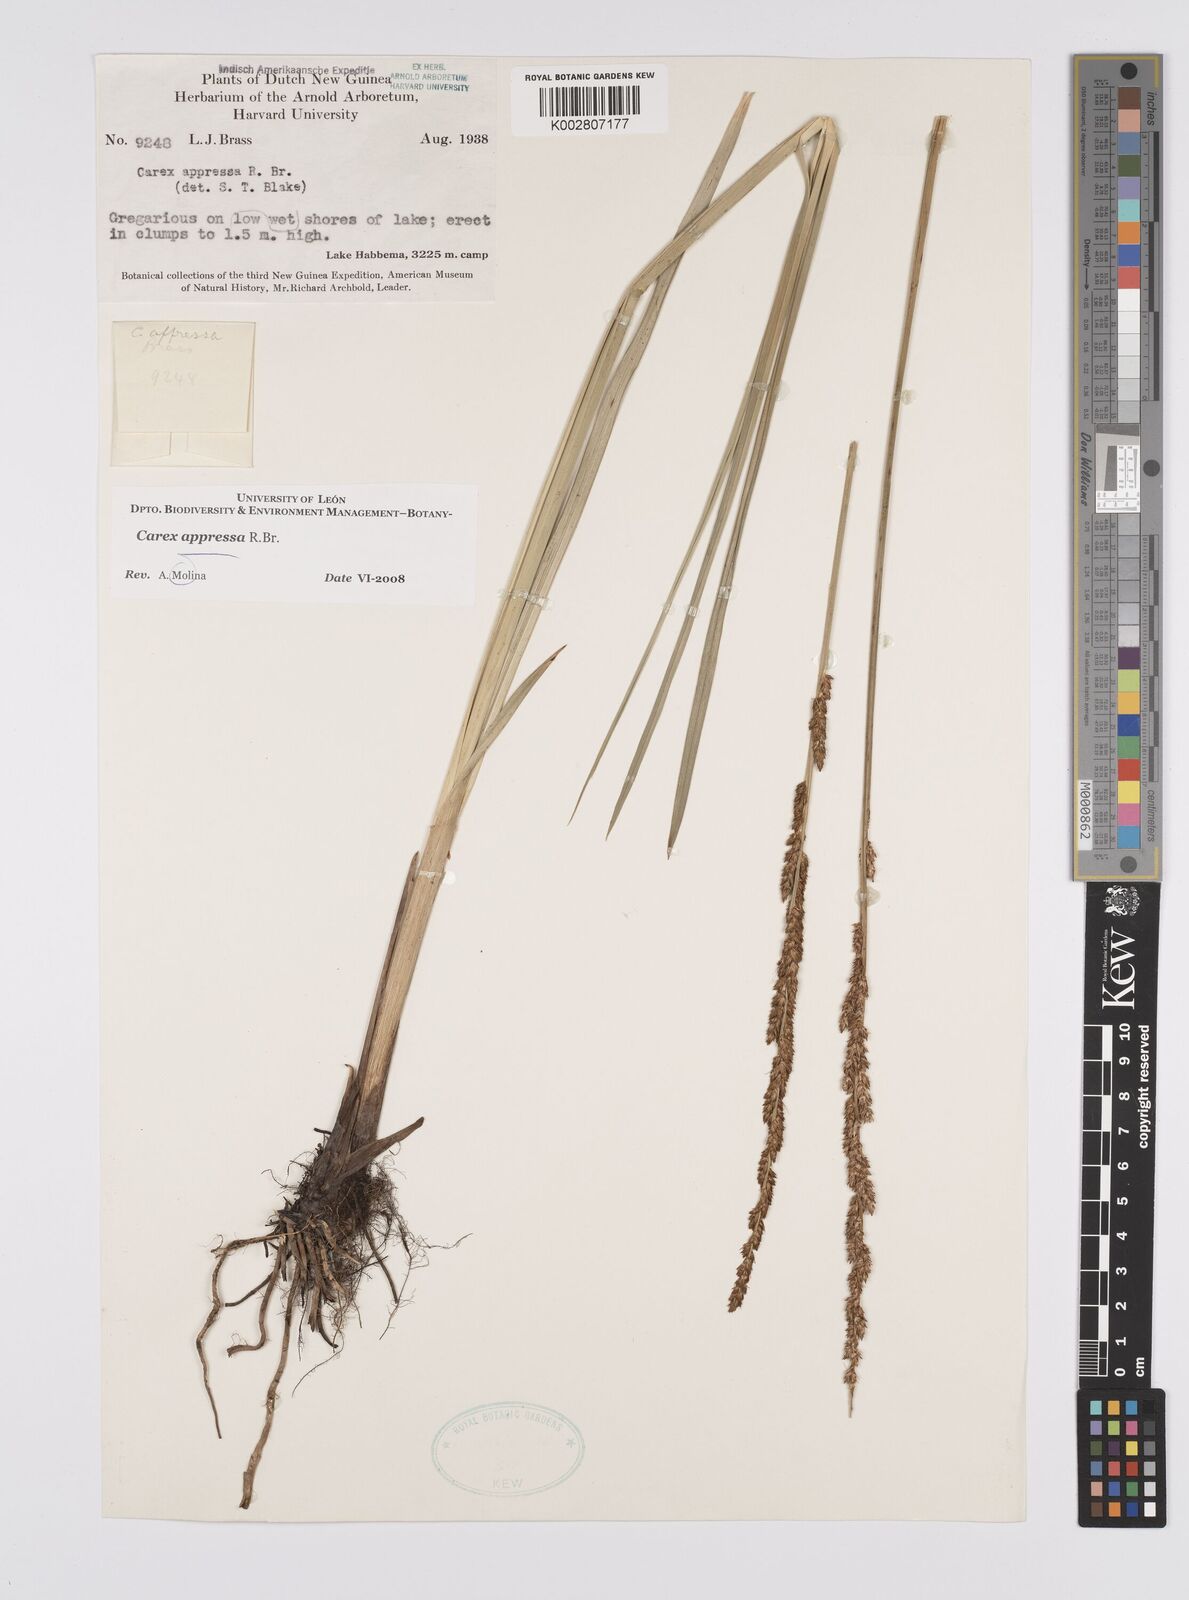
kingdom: Plantae
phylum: Tracheophyta
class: Liliopsida
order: Poales
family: Cyperaceae
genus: Carex
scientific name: Carex appressa
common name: Tussock sedge
